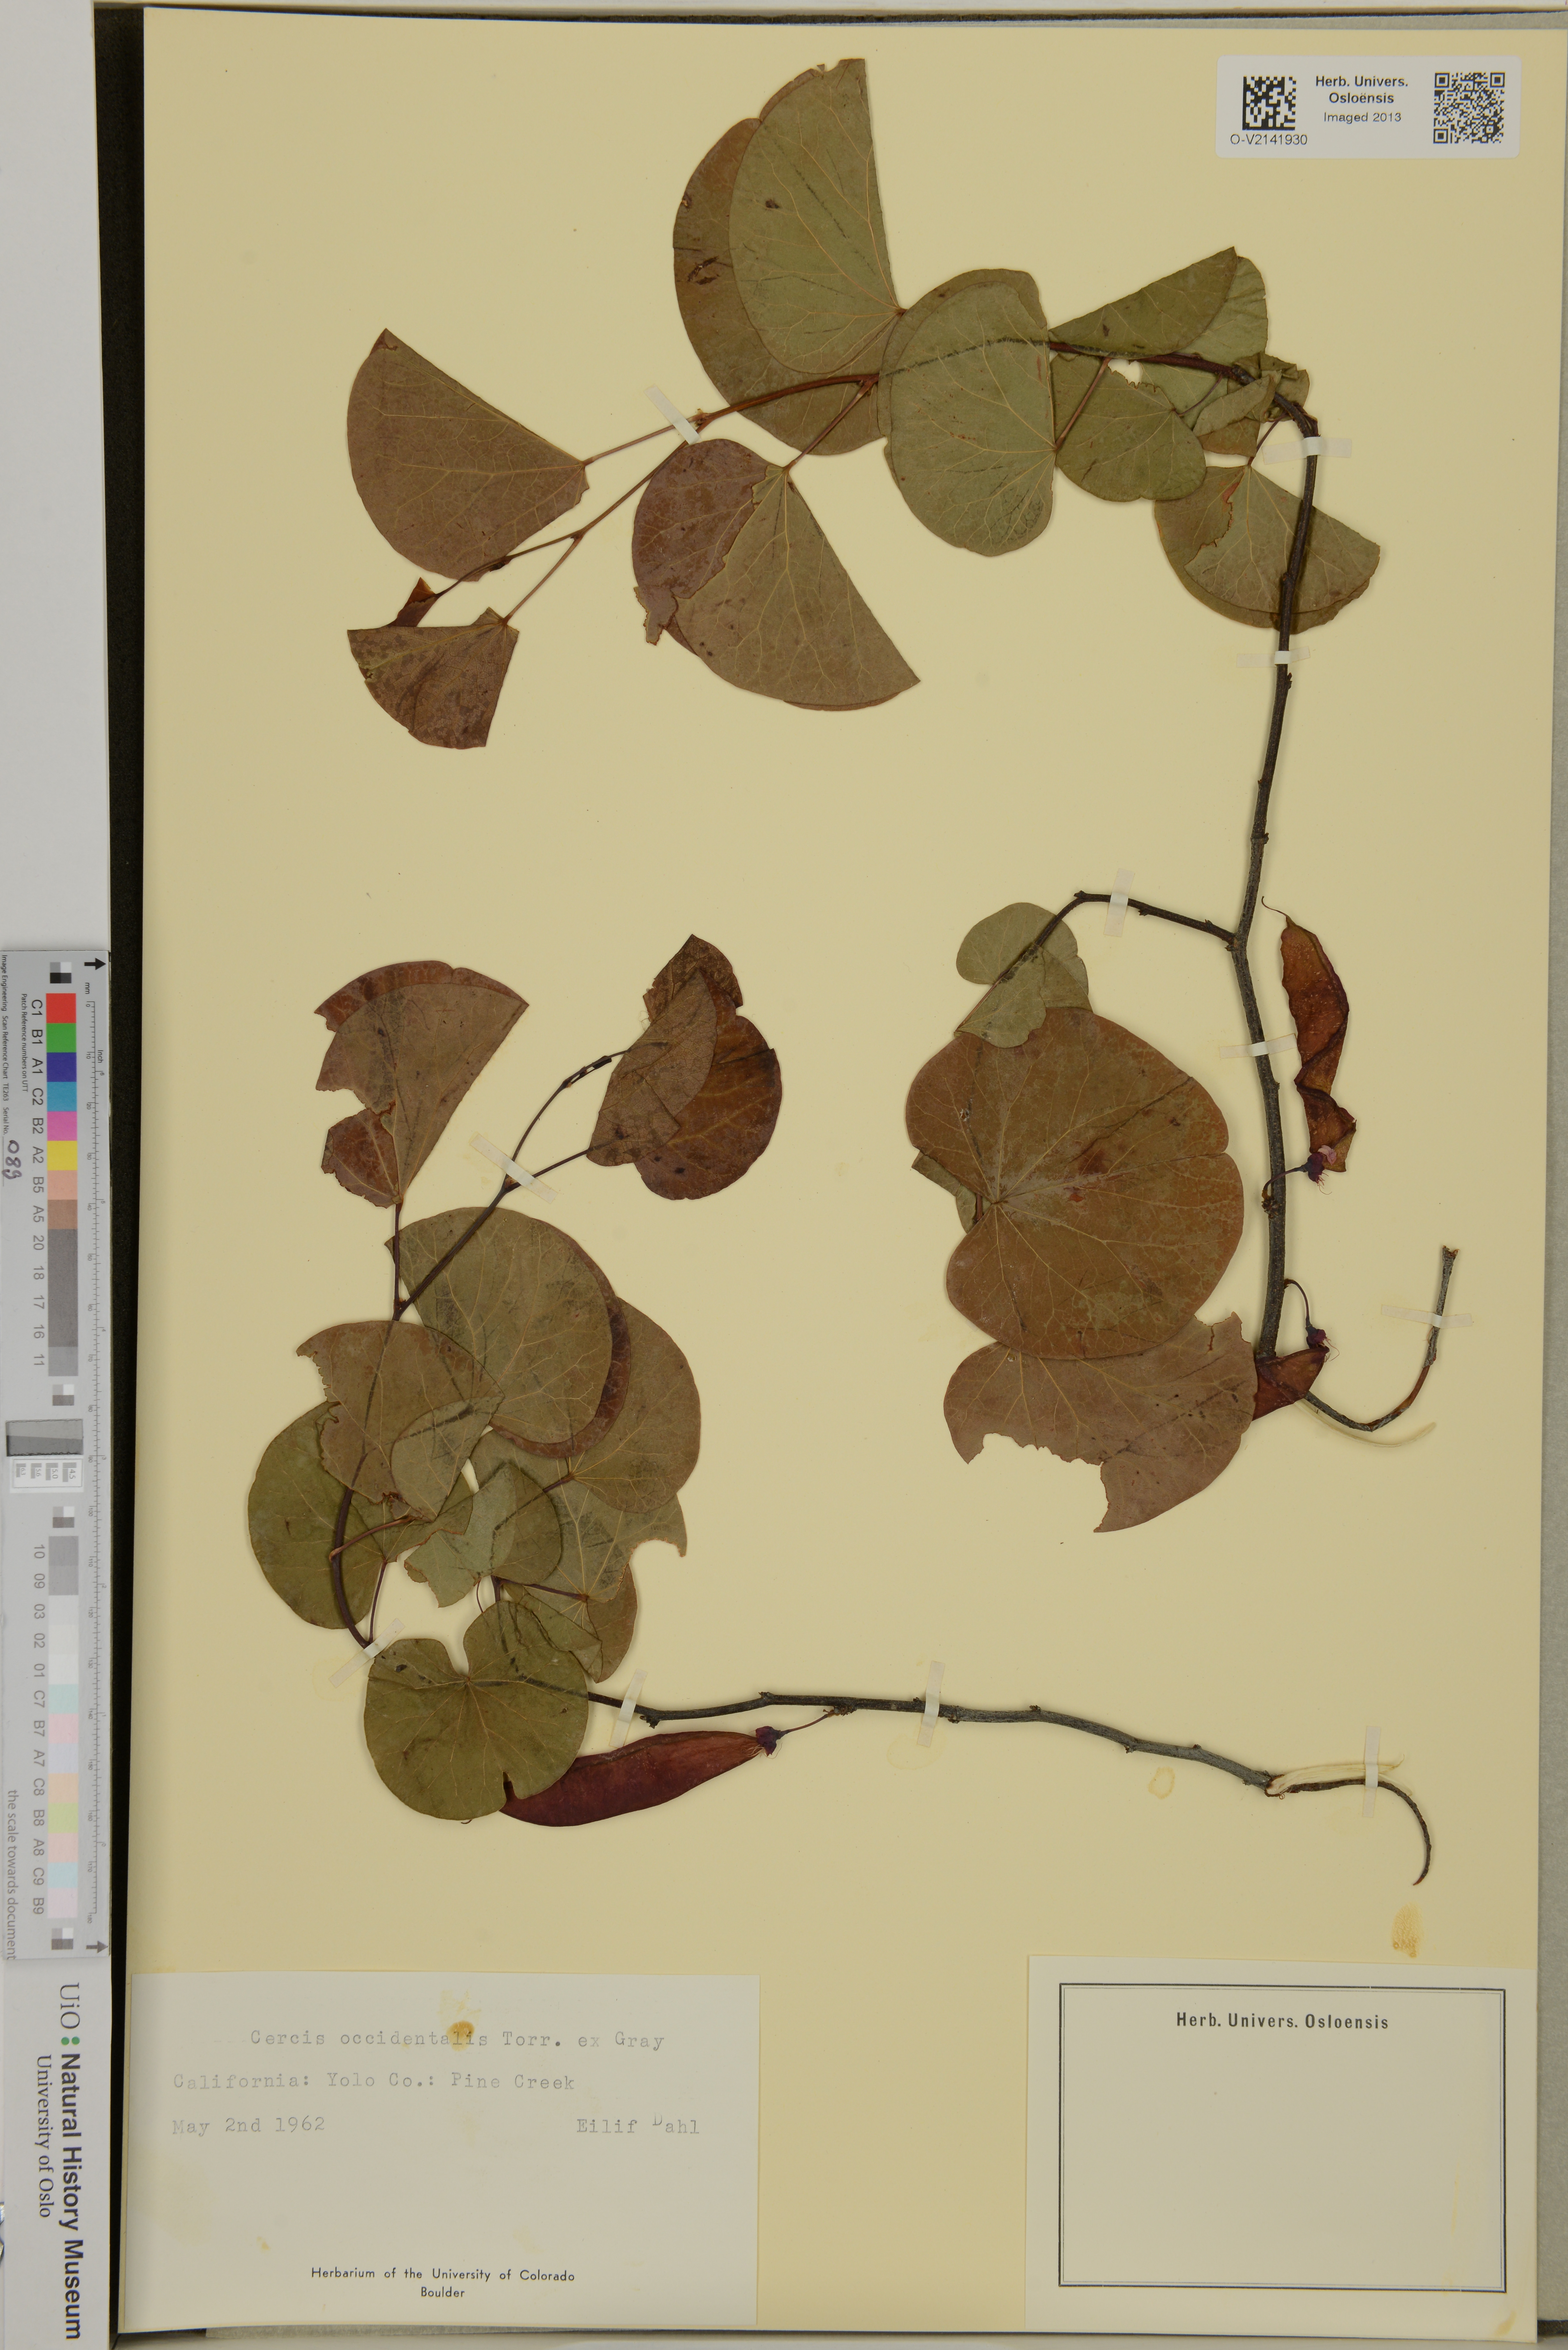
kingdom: Plantae
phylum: Tracheophyta
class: Magnoliopsida
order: Fabales
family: Fabaceae
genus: Cercis
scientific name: Cercis occidentalis
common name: California redbud
